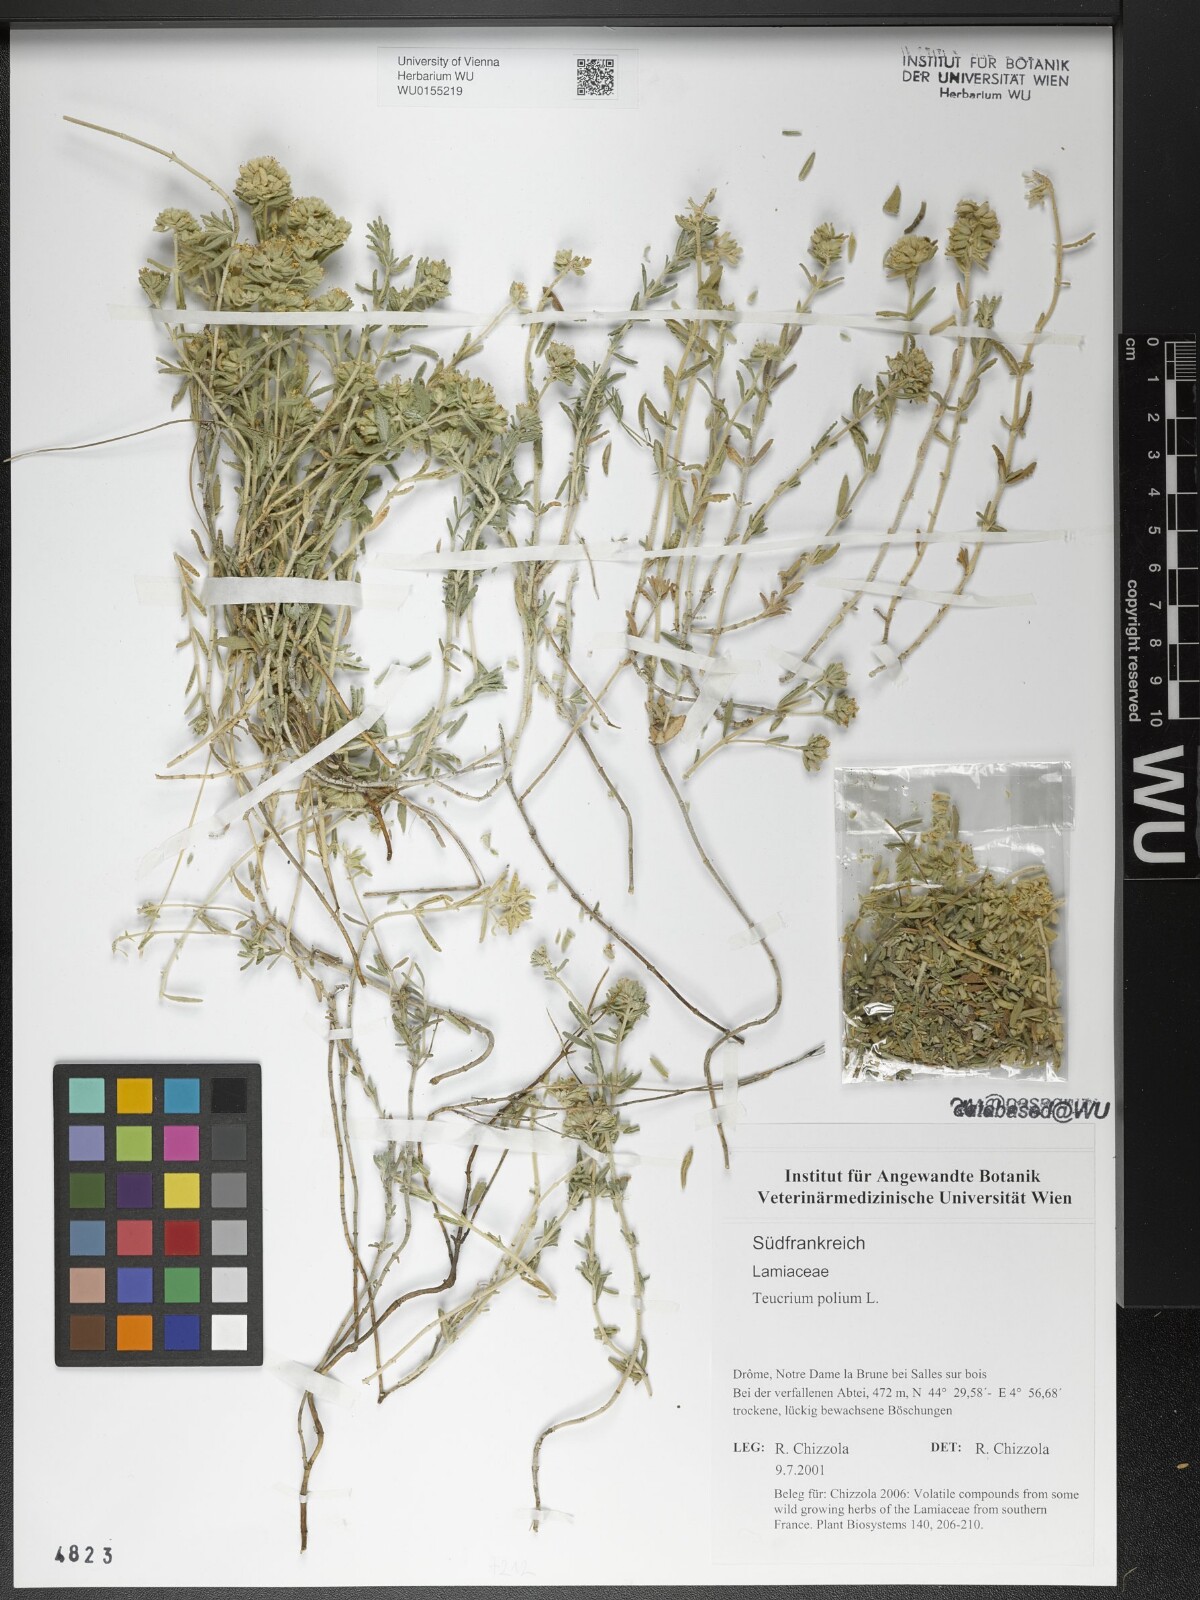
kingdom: Plantae
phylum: Tracheophyta
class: Magnoliopsida
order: Lamiales
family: Lamiaceae
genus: Teucrium
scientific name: Teucrium polium
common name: Poley
